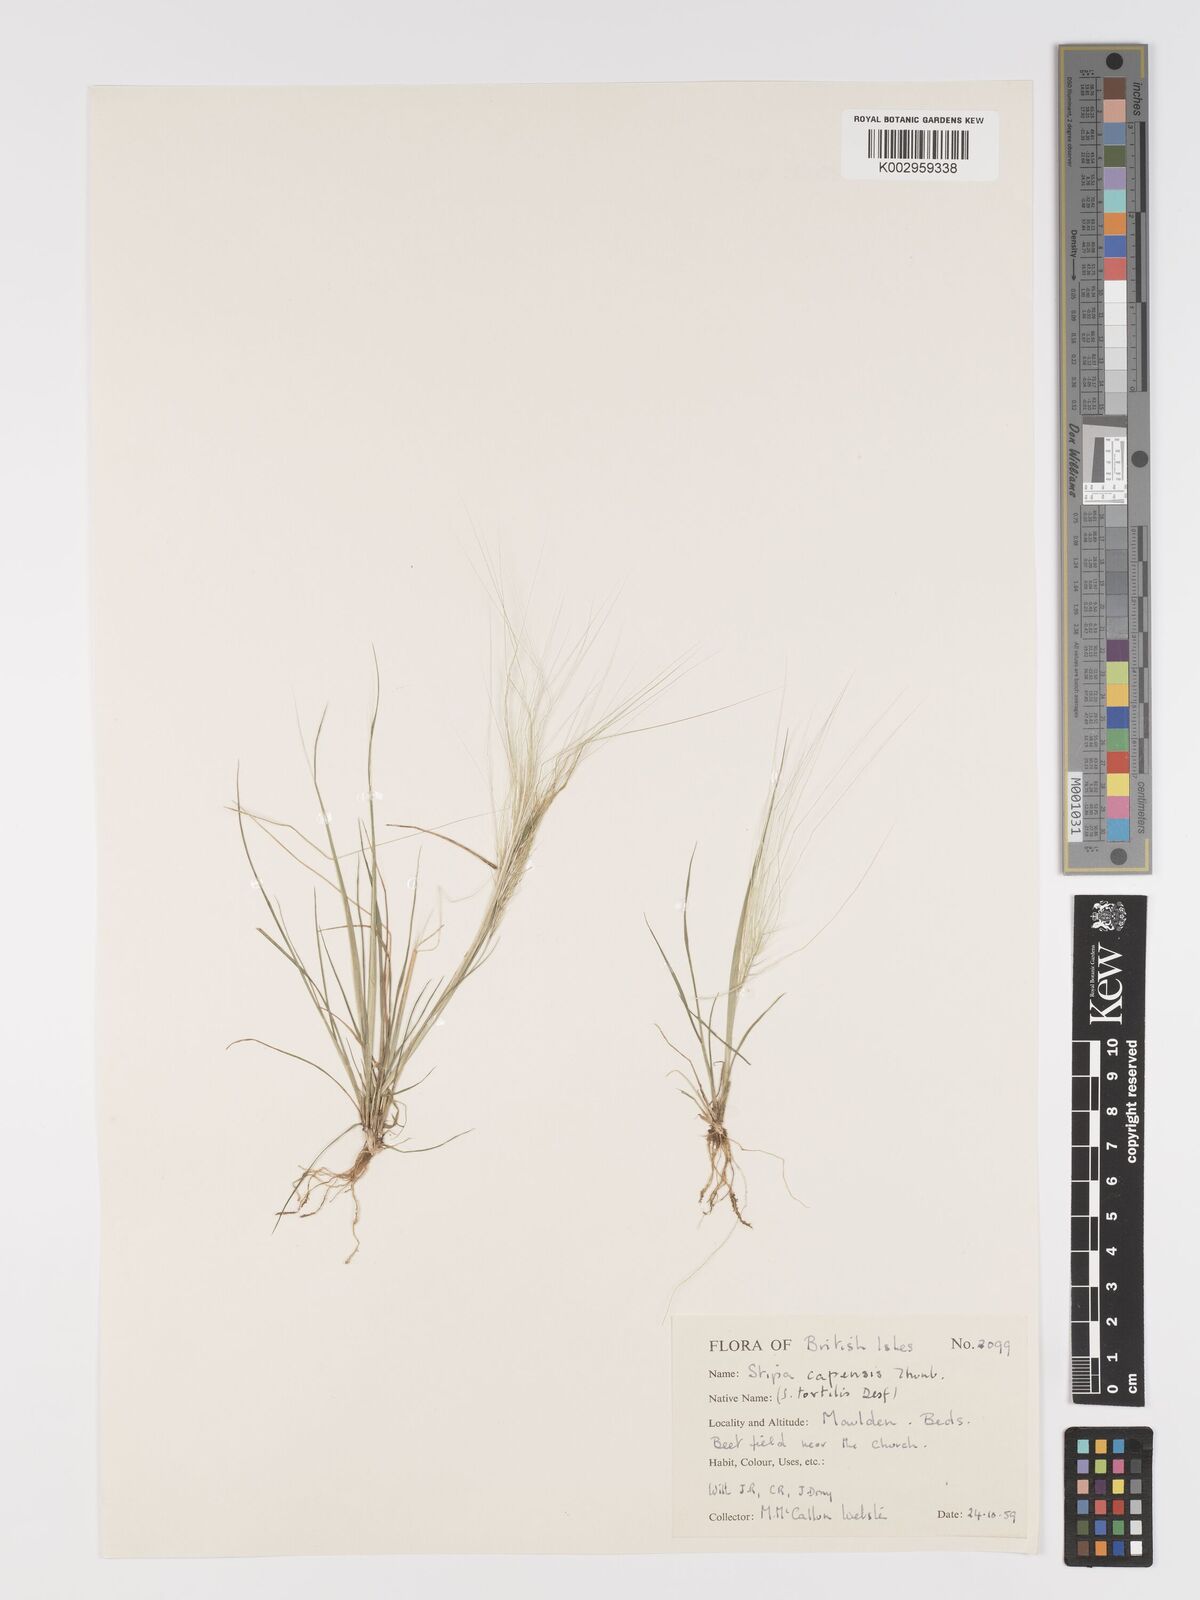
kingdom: Plantae
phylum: Tracheophyta
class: Liliopsida
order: Poales
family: Poaceae
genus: Stipellula
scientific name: Stipellula capensis
